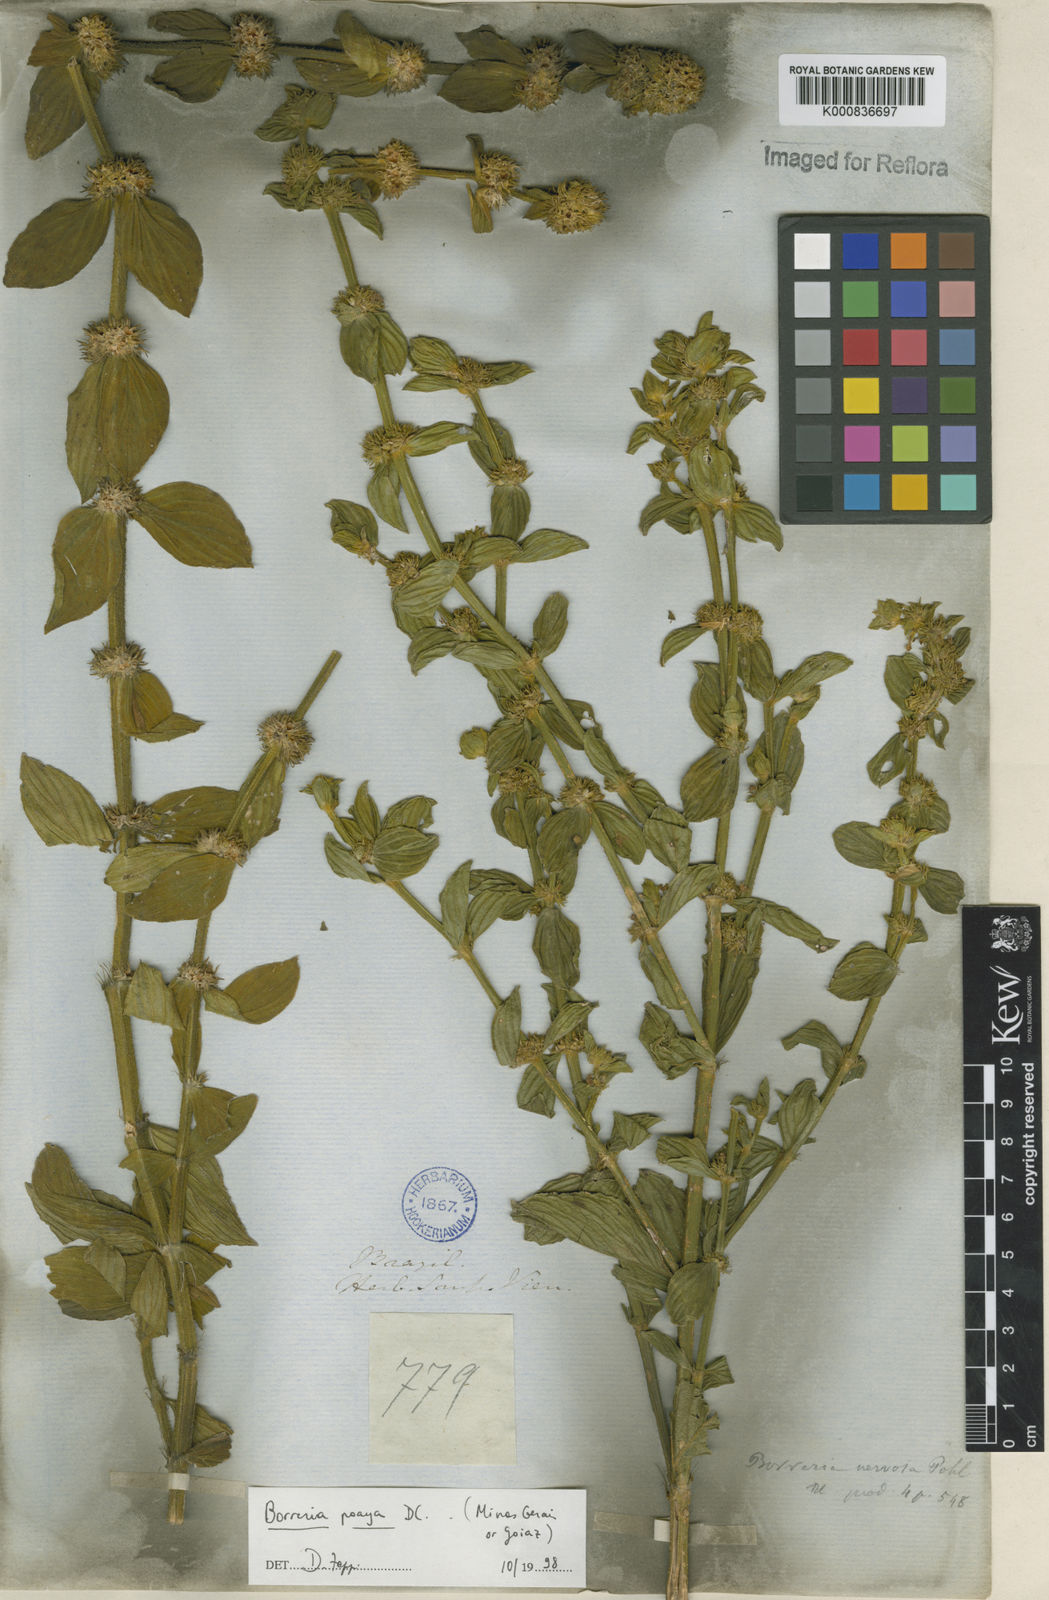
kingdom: Plantae
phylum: Tracheophyta
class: Magnoliopsida
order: Gentianales
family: Rubiaceae
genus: Spermacoce
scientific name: Spermacoce poaya
